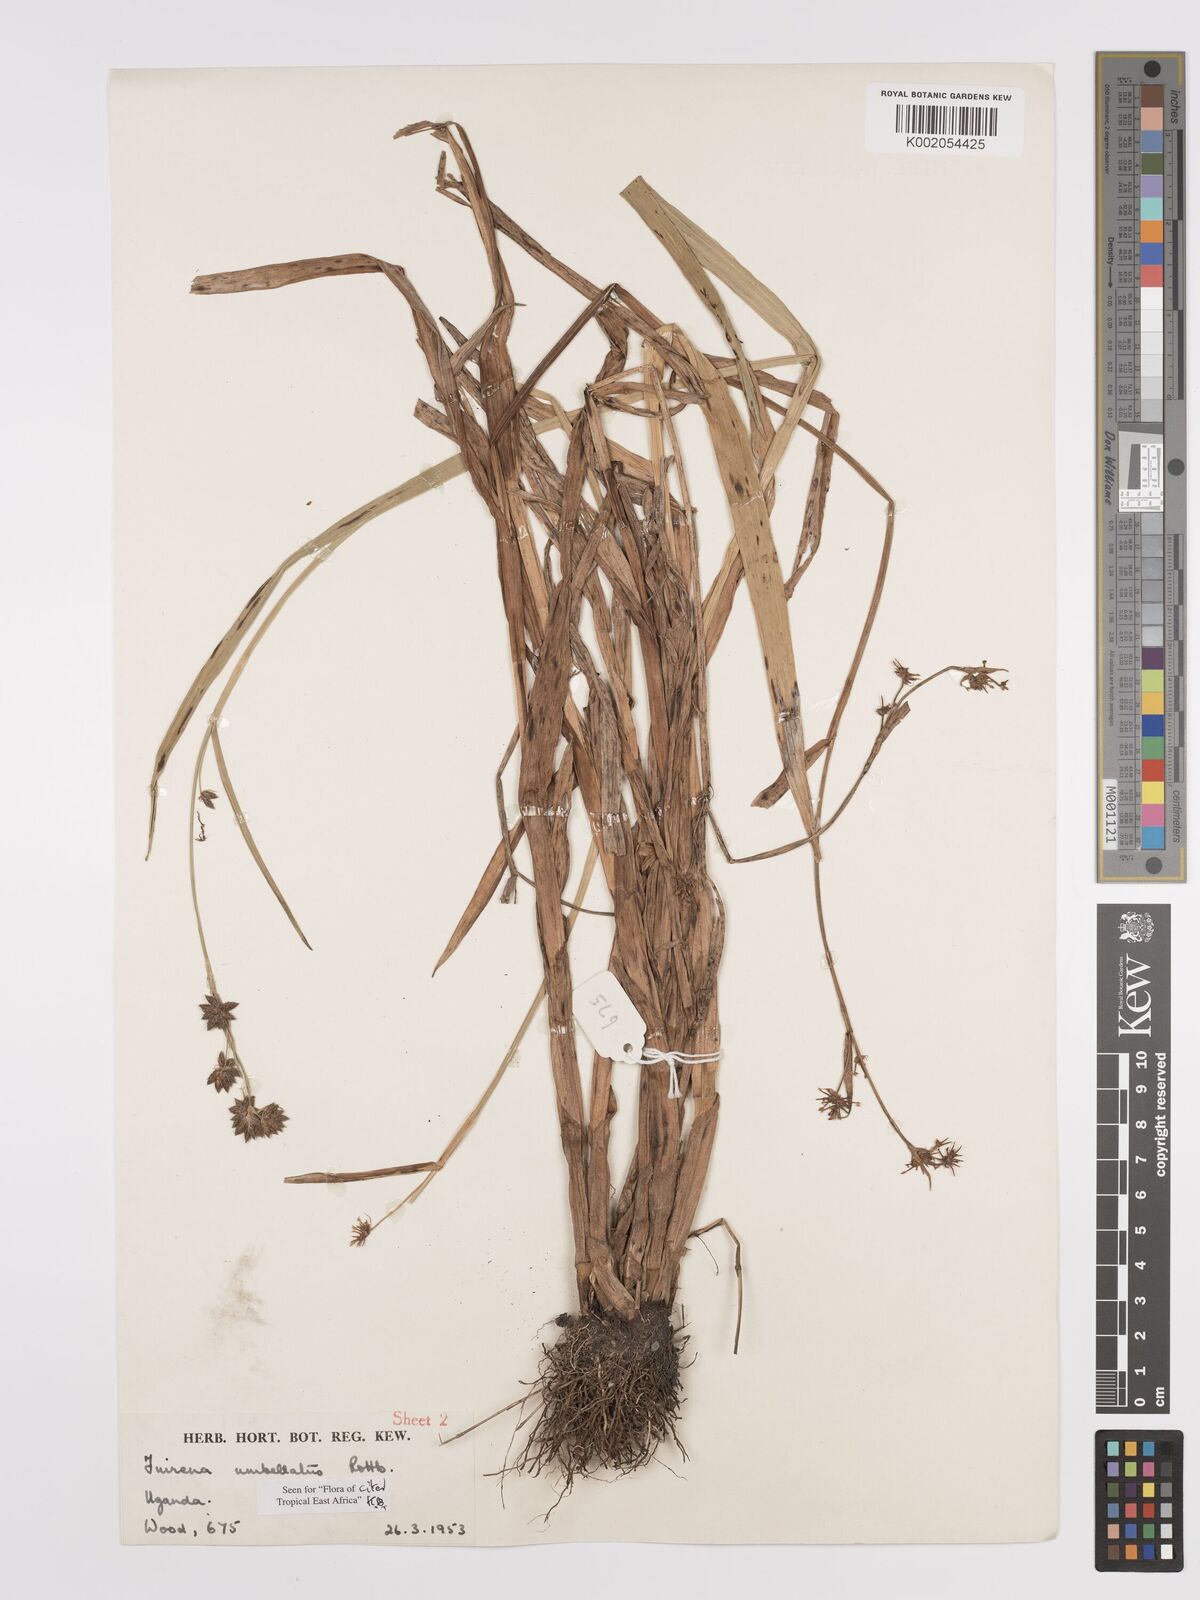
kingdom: Plantae
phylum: Tracheophyta
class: Liliopsida
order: Poales
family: Cyperaceae
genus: Fuirena
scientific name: Fuirena umbellata
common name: Yefen
